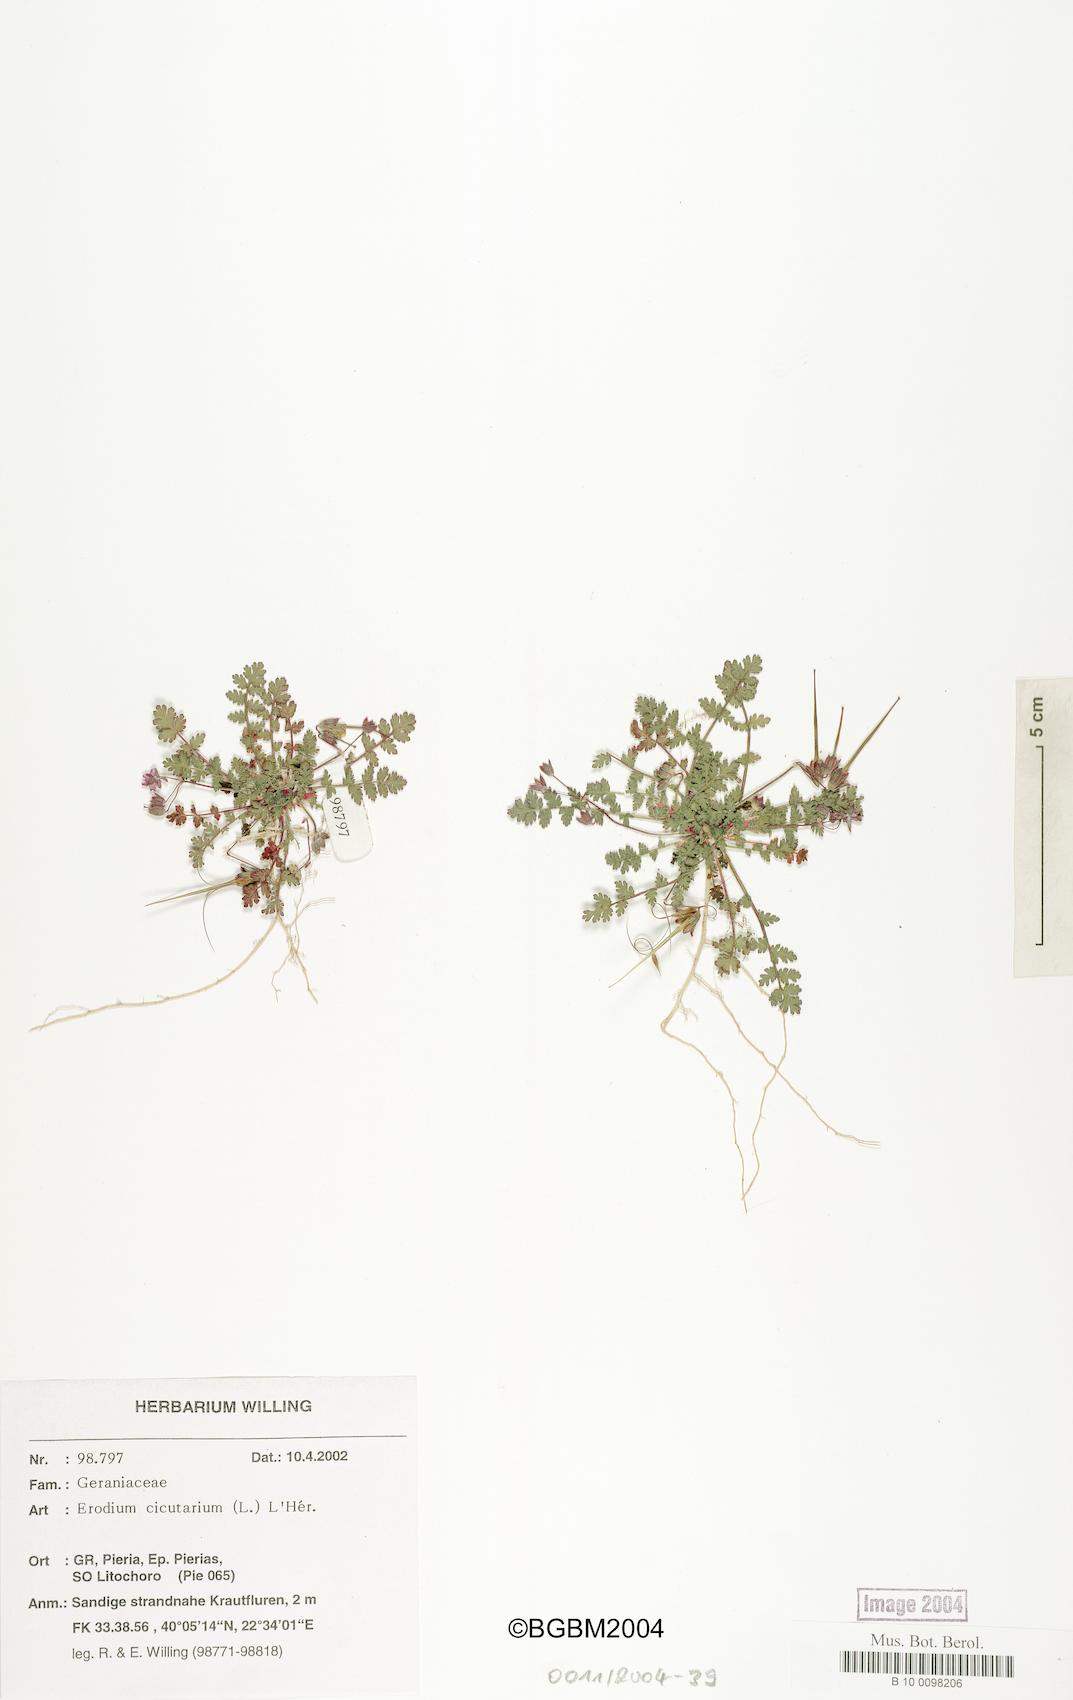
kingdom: Plantae
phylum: Tracheophyta
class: Magnoliopsida
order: Geraniales
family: Geraniaceae
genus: Erodium
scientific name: Erodium cicutarium
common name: Common stork's-bill
